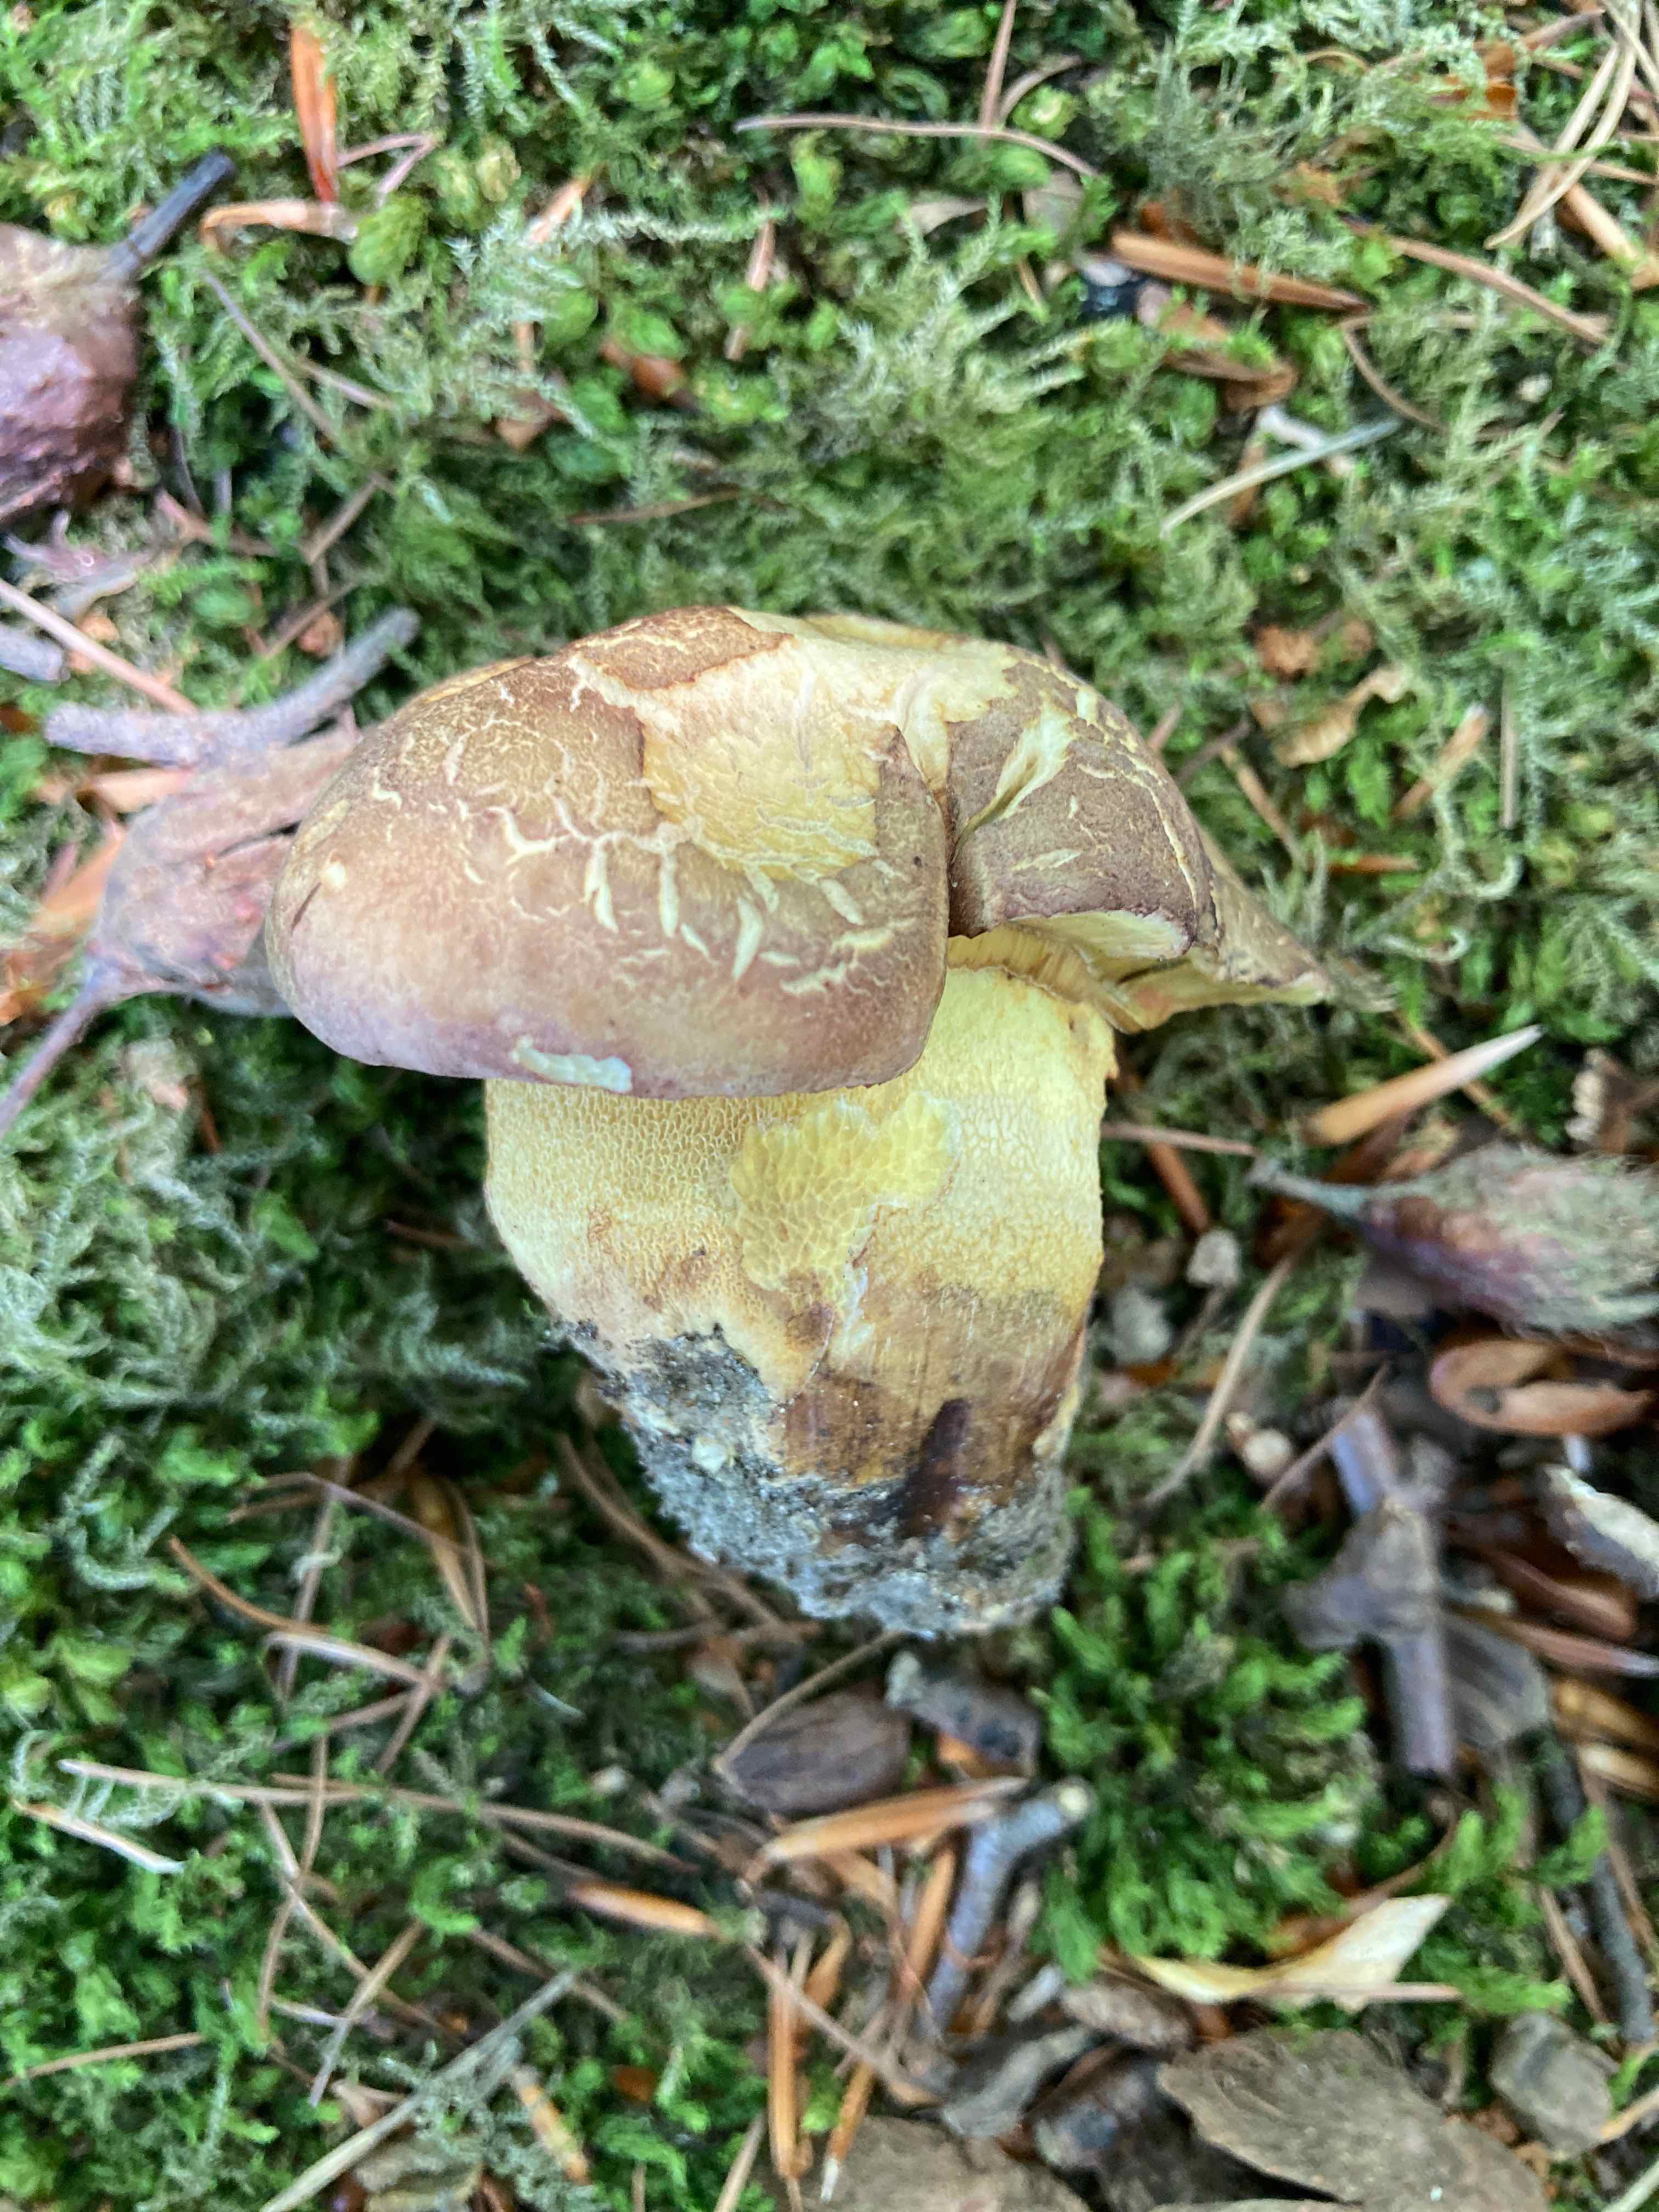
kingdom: Fungi
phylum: Basidiomycota
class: Agaricomycetes
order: Boletales
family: Boletaceae
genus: Butyriboletus
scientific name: Butyriboletus appendiculatus
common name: tenstokket rørhat
